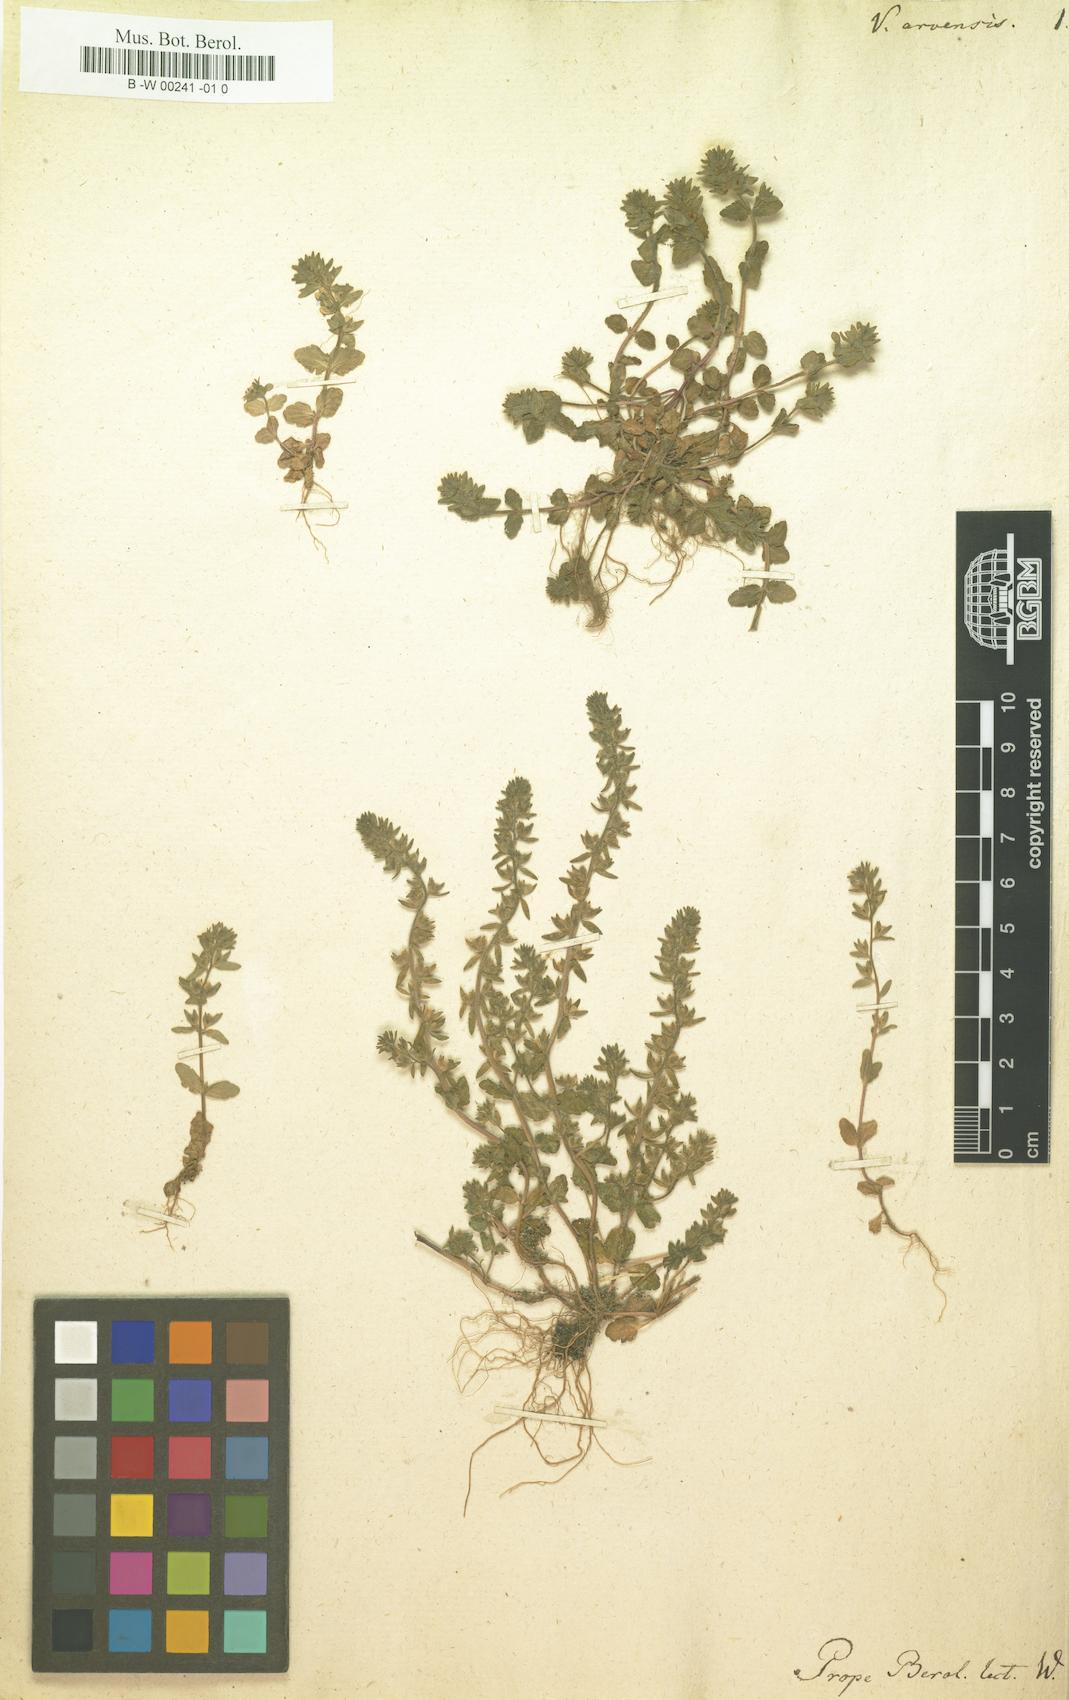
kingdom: Plantae
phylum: Tracheophyta
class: Magnoliopsida
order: Lamiales
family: Plantaginaceae
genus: Veronica
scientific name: Veronica arvensis
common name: Corn speedwell
